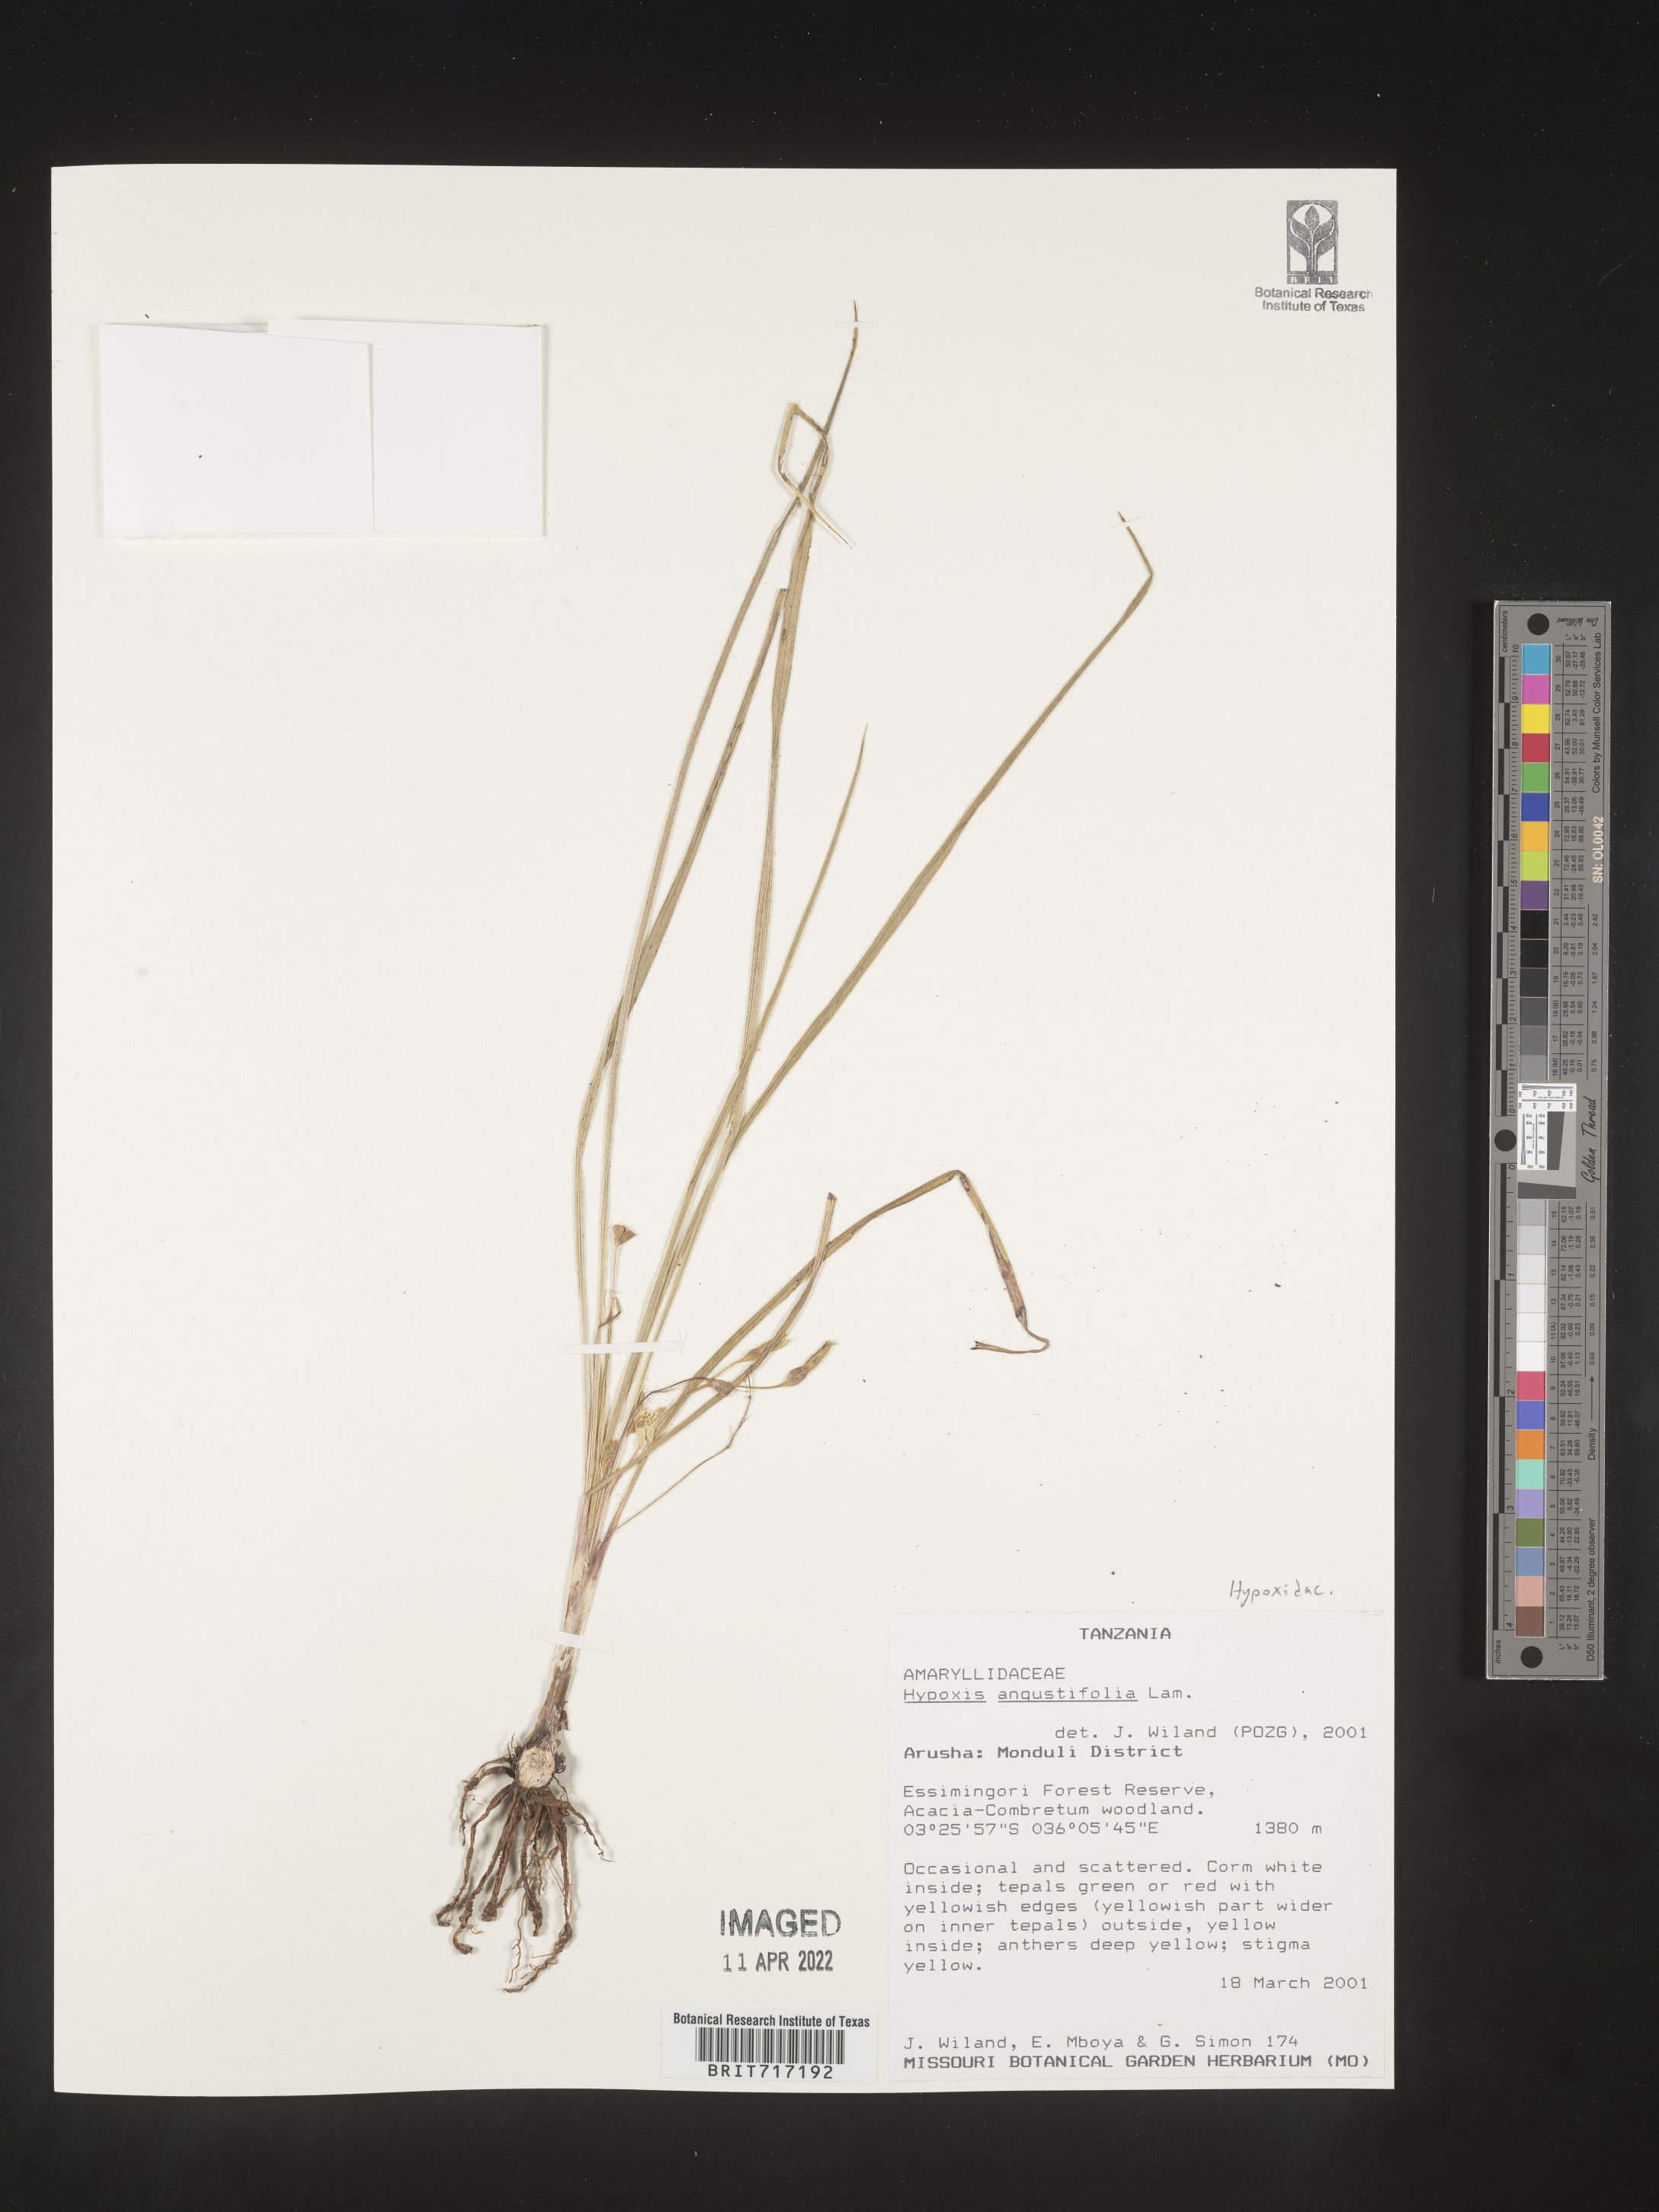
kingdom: Plantae
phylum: Tracheophyta
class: Liliopsida
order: Asparagales
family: Hypoxidaceae
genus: Hypoxis
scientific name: Hypoxis
